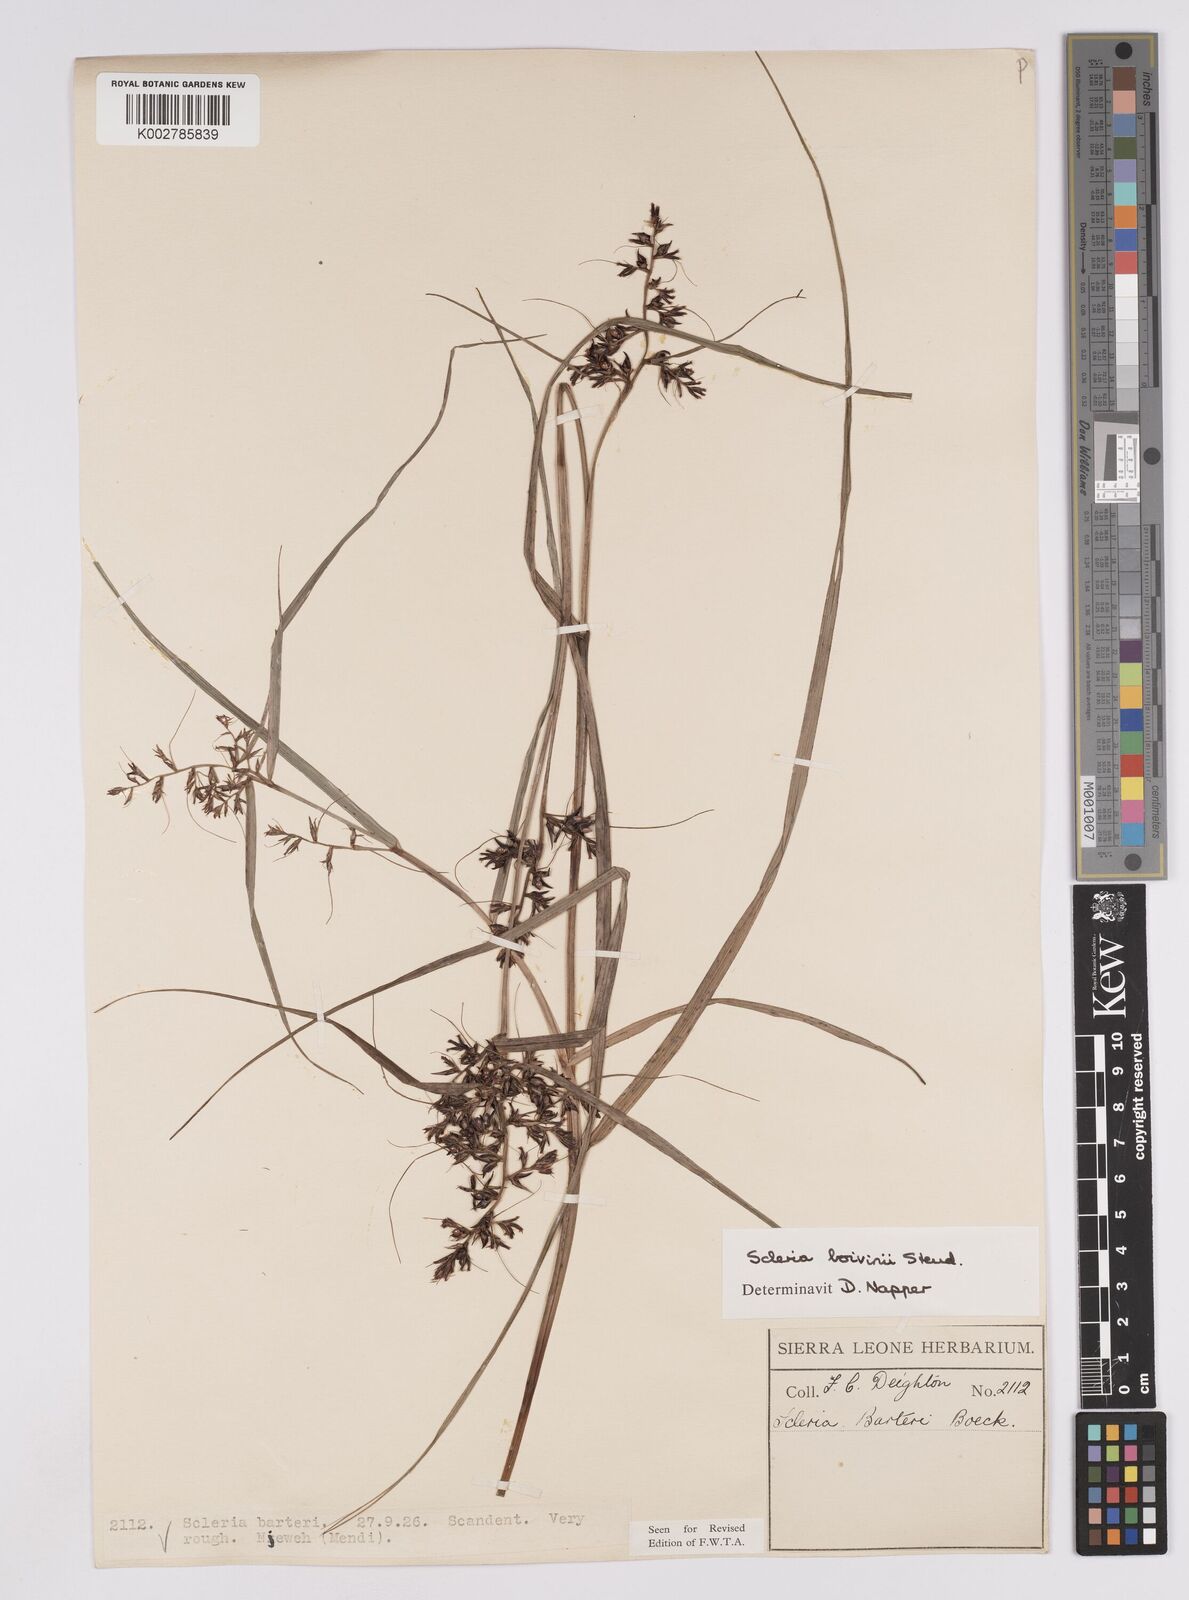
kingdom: Plantae
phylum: Tracheophyta
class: Liliopsida
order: Poales
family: Cyperaceae
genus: Scleria
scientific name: Scleria boivinii
